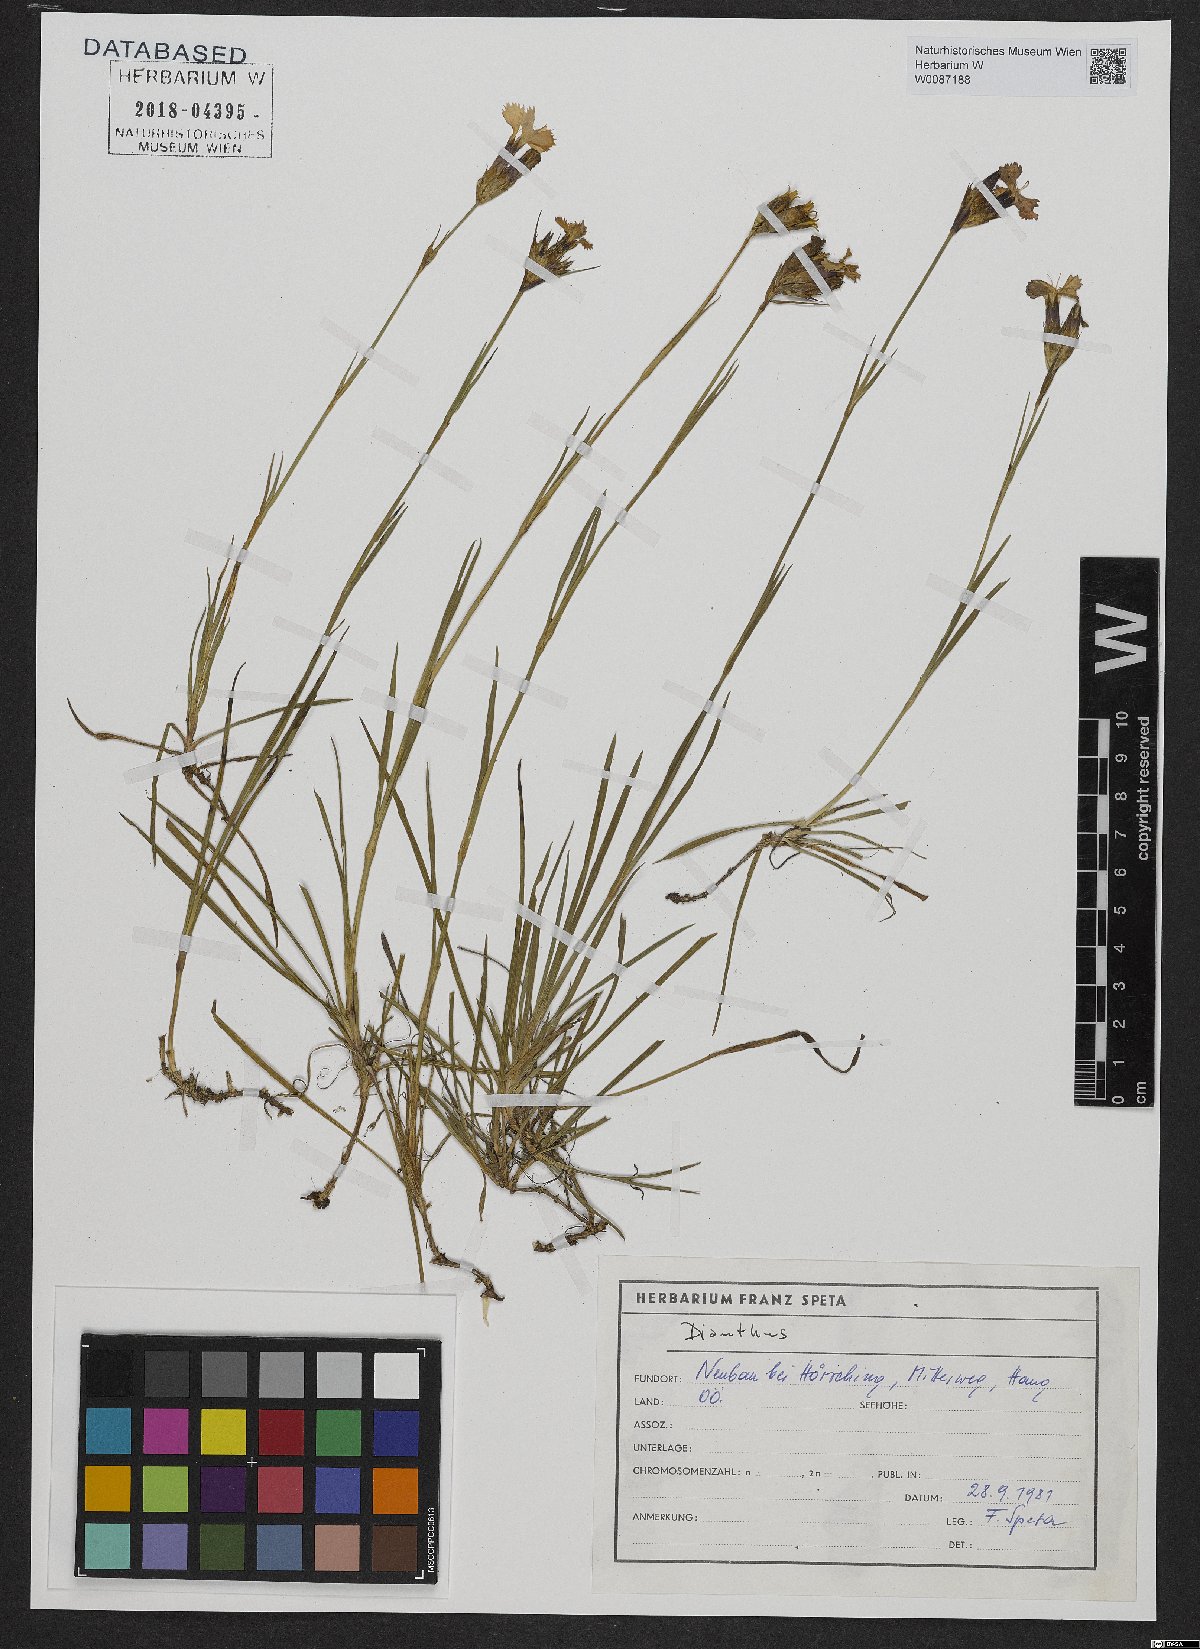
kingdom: Plantae
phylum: Tracheophyta
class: Magnoliopsida
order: Caryophyllales
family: Caryophyllaceae
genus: Dianthus
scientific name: Dianthus carthusianorum
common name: Carthusian pink
